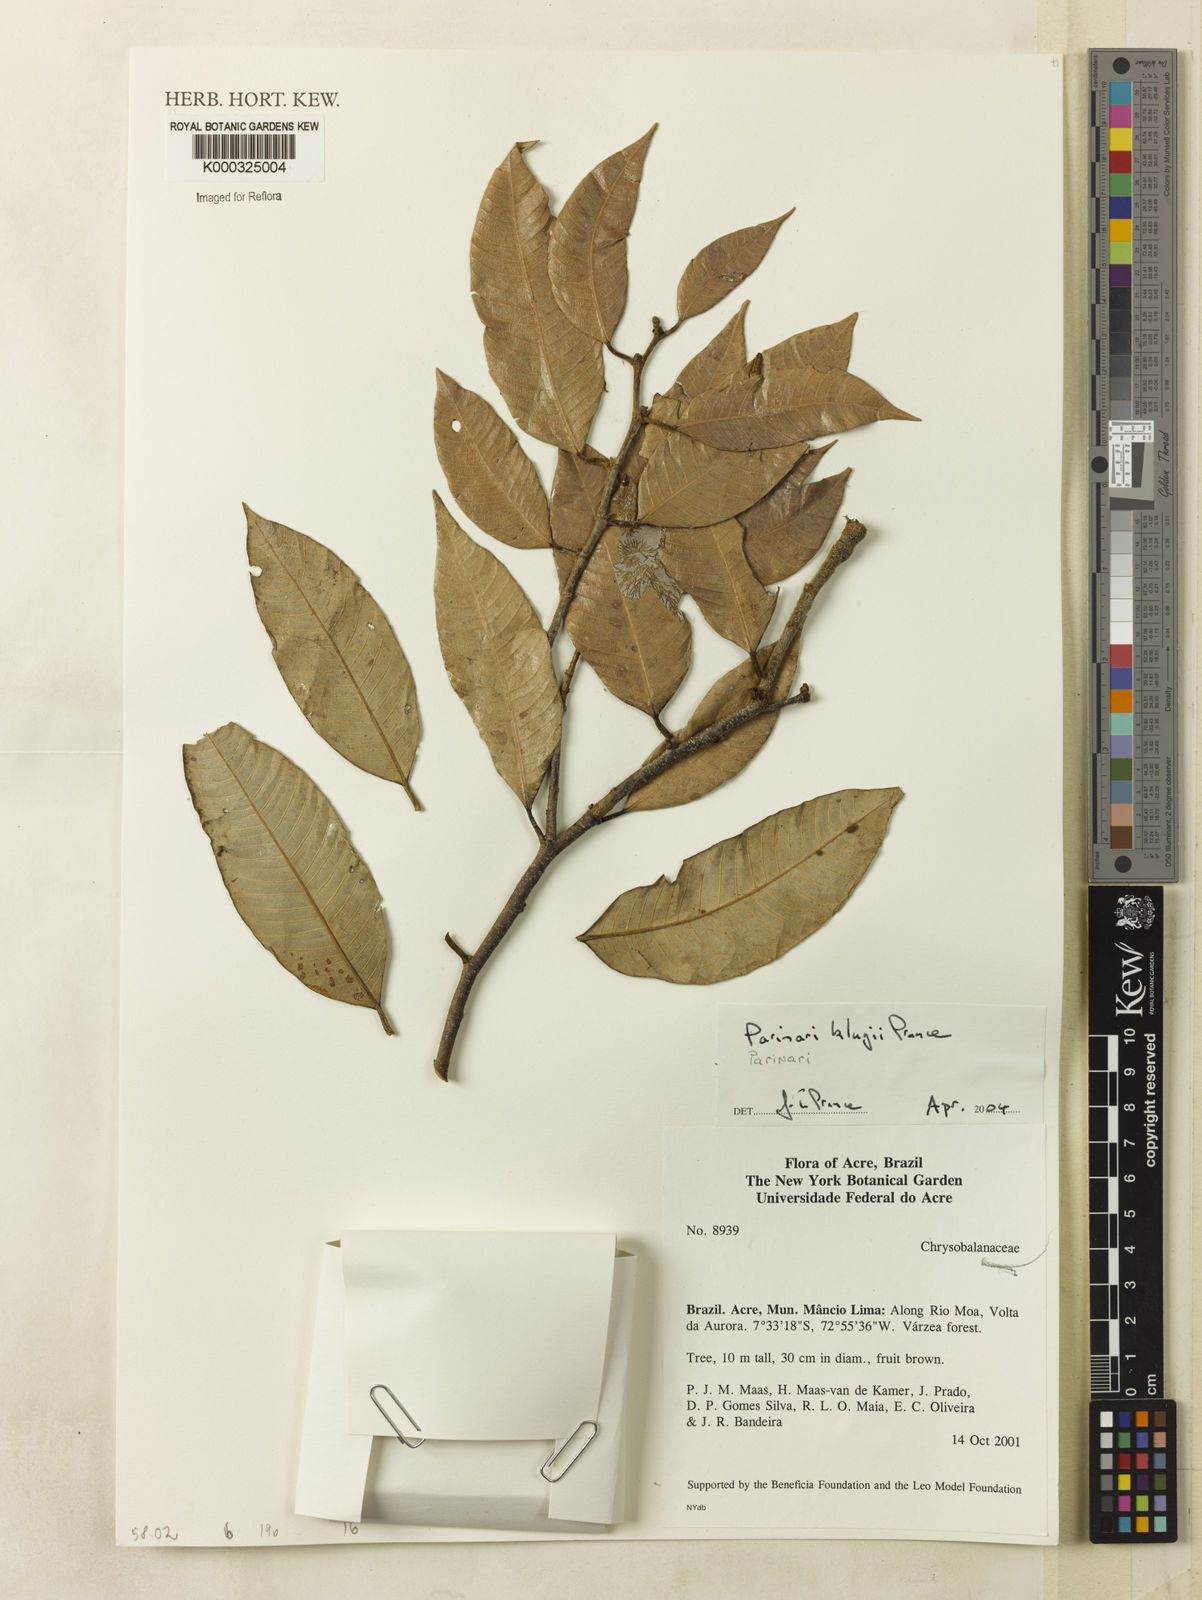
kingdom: Plantae
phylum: Tracheophyta
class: Magnoliopsida
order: Malpighiales
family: Chrysobalanaceae
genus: Parinari
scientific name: Parinari klugii
